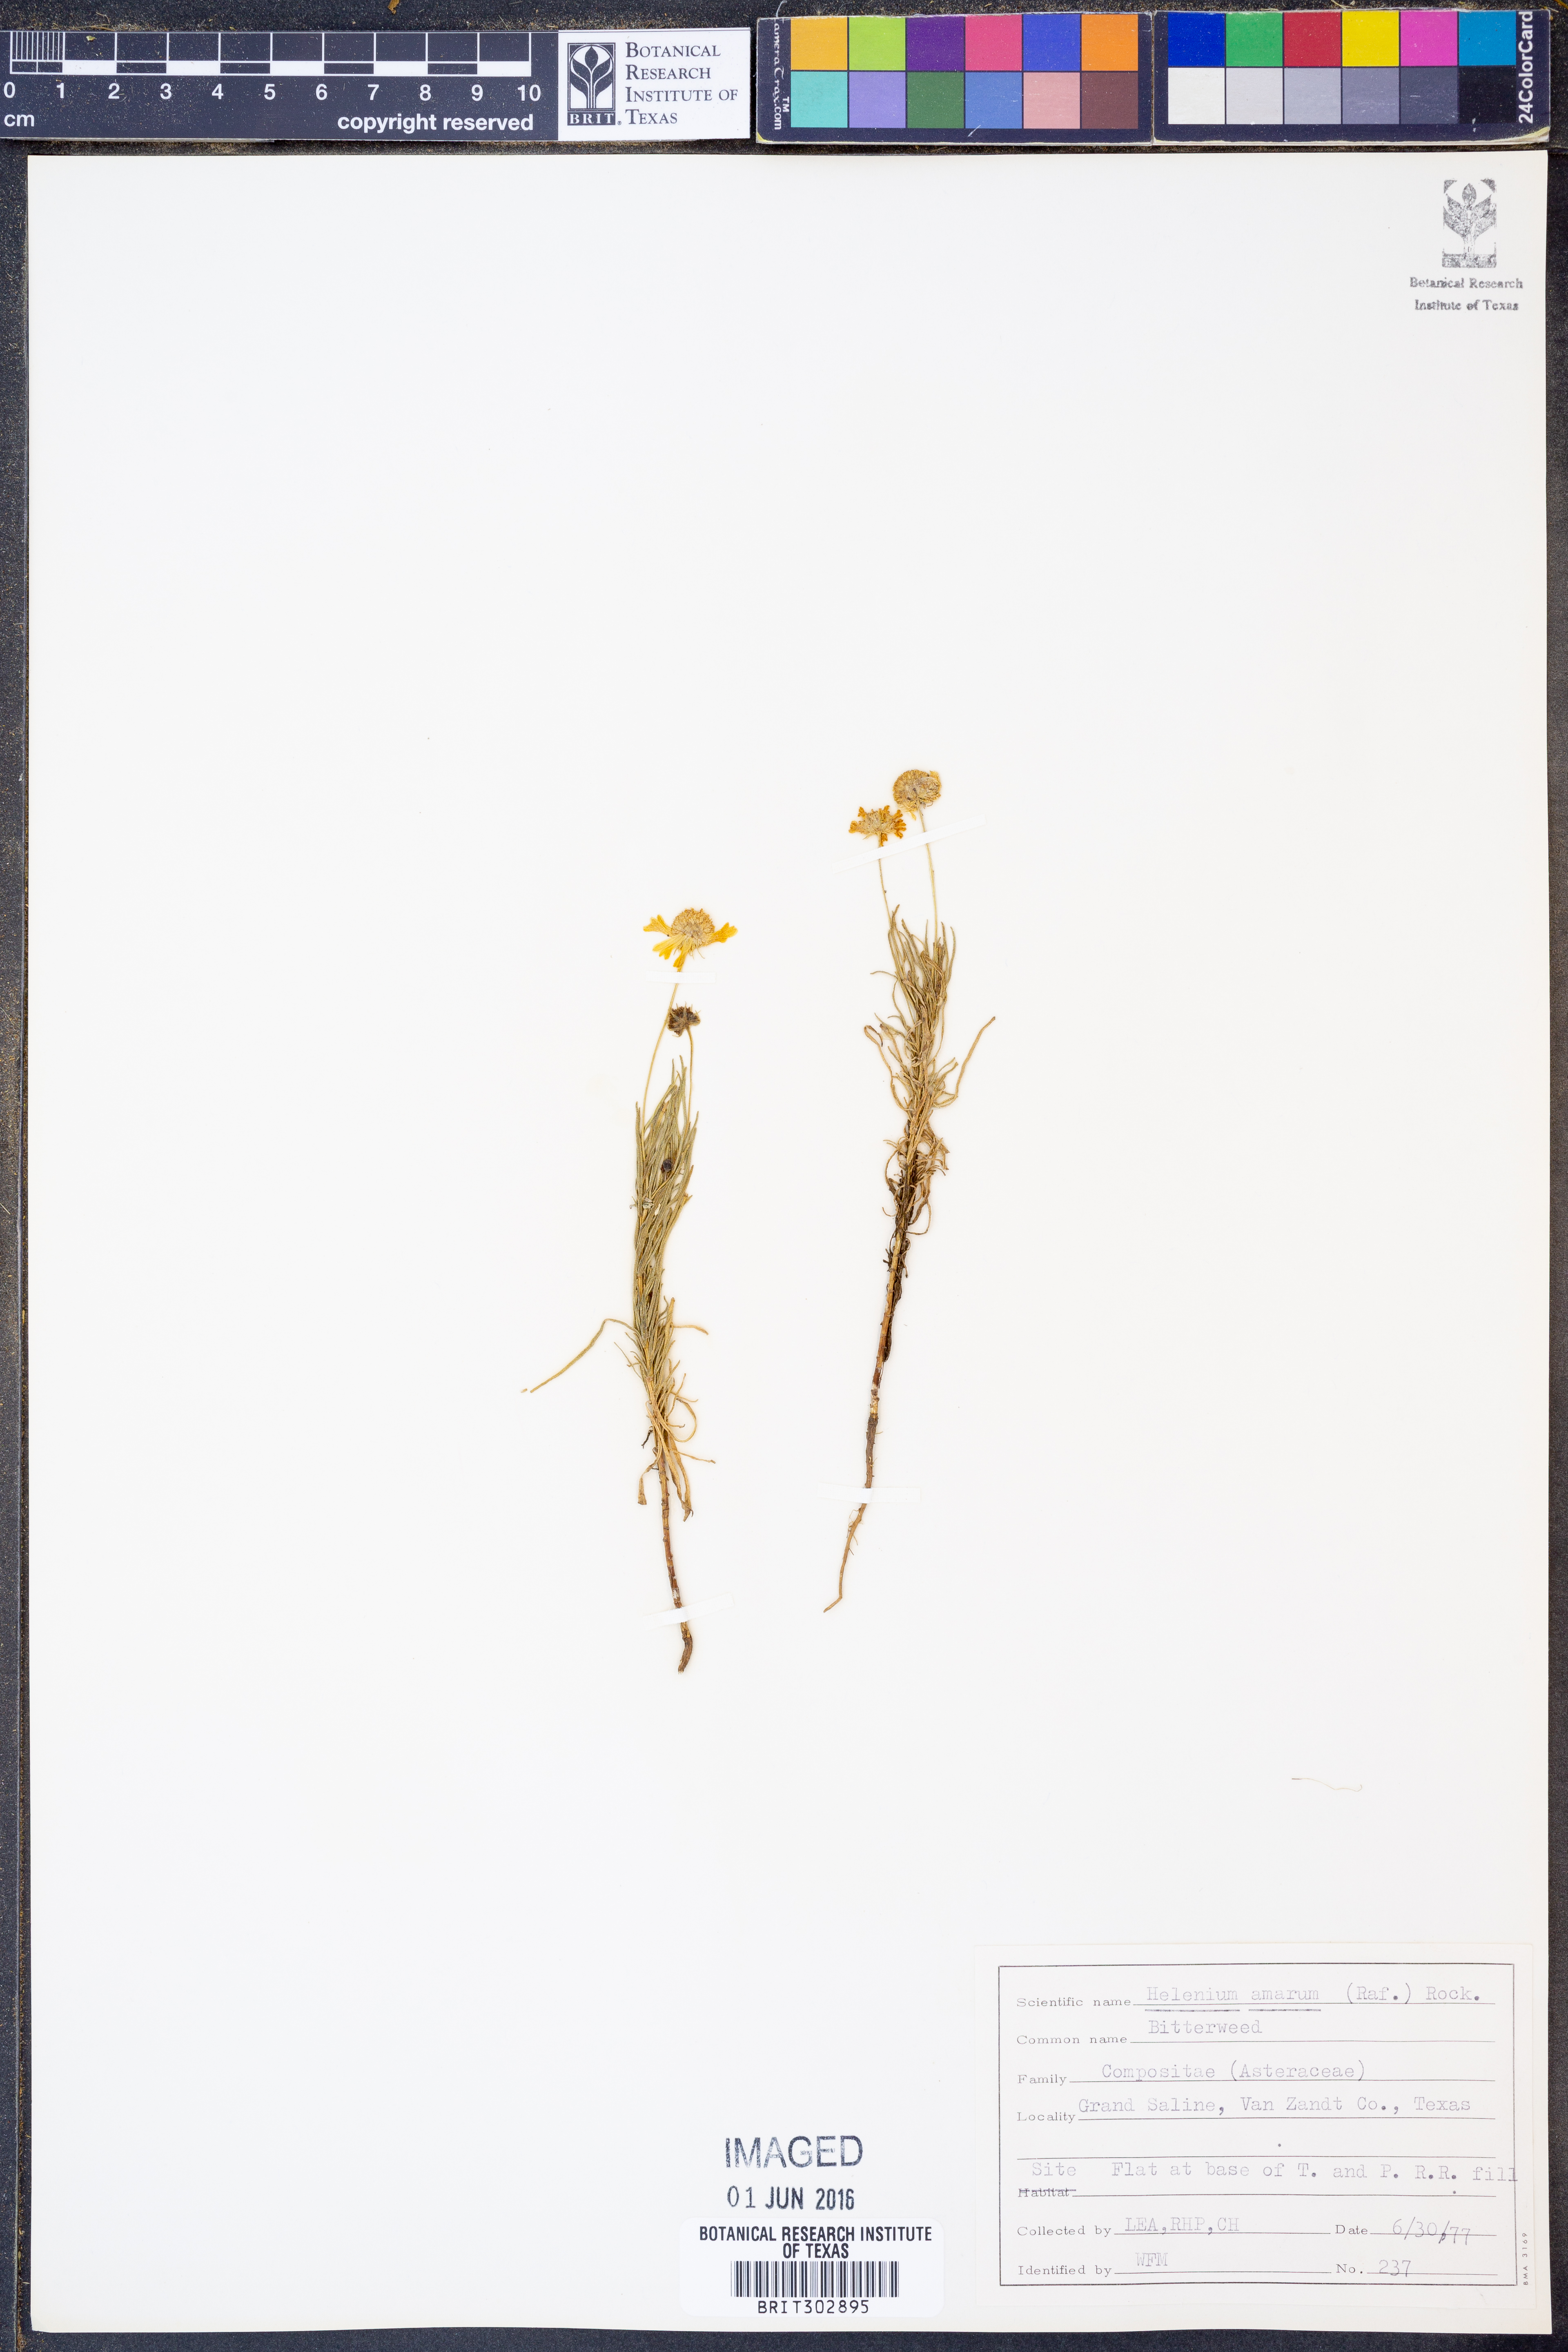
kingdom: Plantae
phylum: Tracheophyta
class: Magnoliopsida
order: Asterales
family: Asteraceae
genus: Helenium
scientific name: Helenium amarum
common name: Bitter sneezeweed
